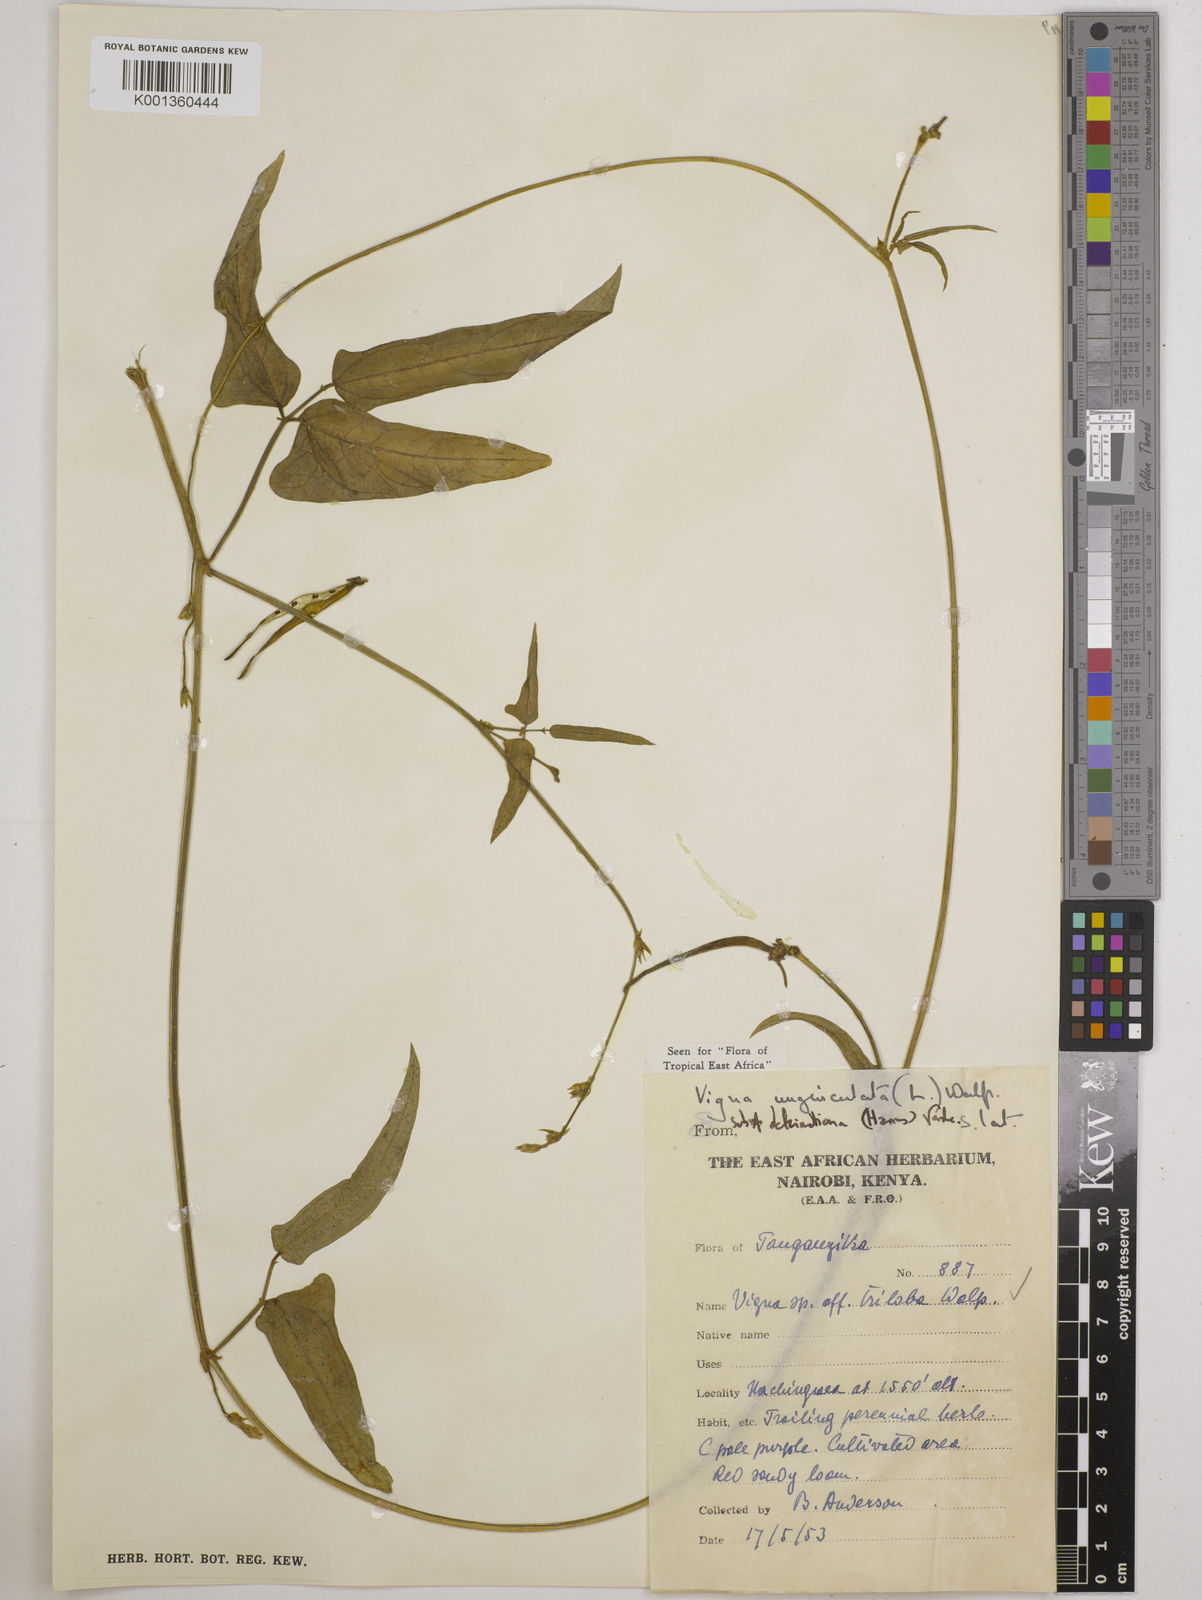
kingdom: Plantae
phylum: Tracheophyta
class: Magnoliopsida
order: Fabales
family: Fabaceae
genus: Vigna
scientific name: Vigna
